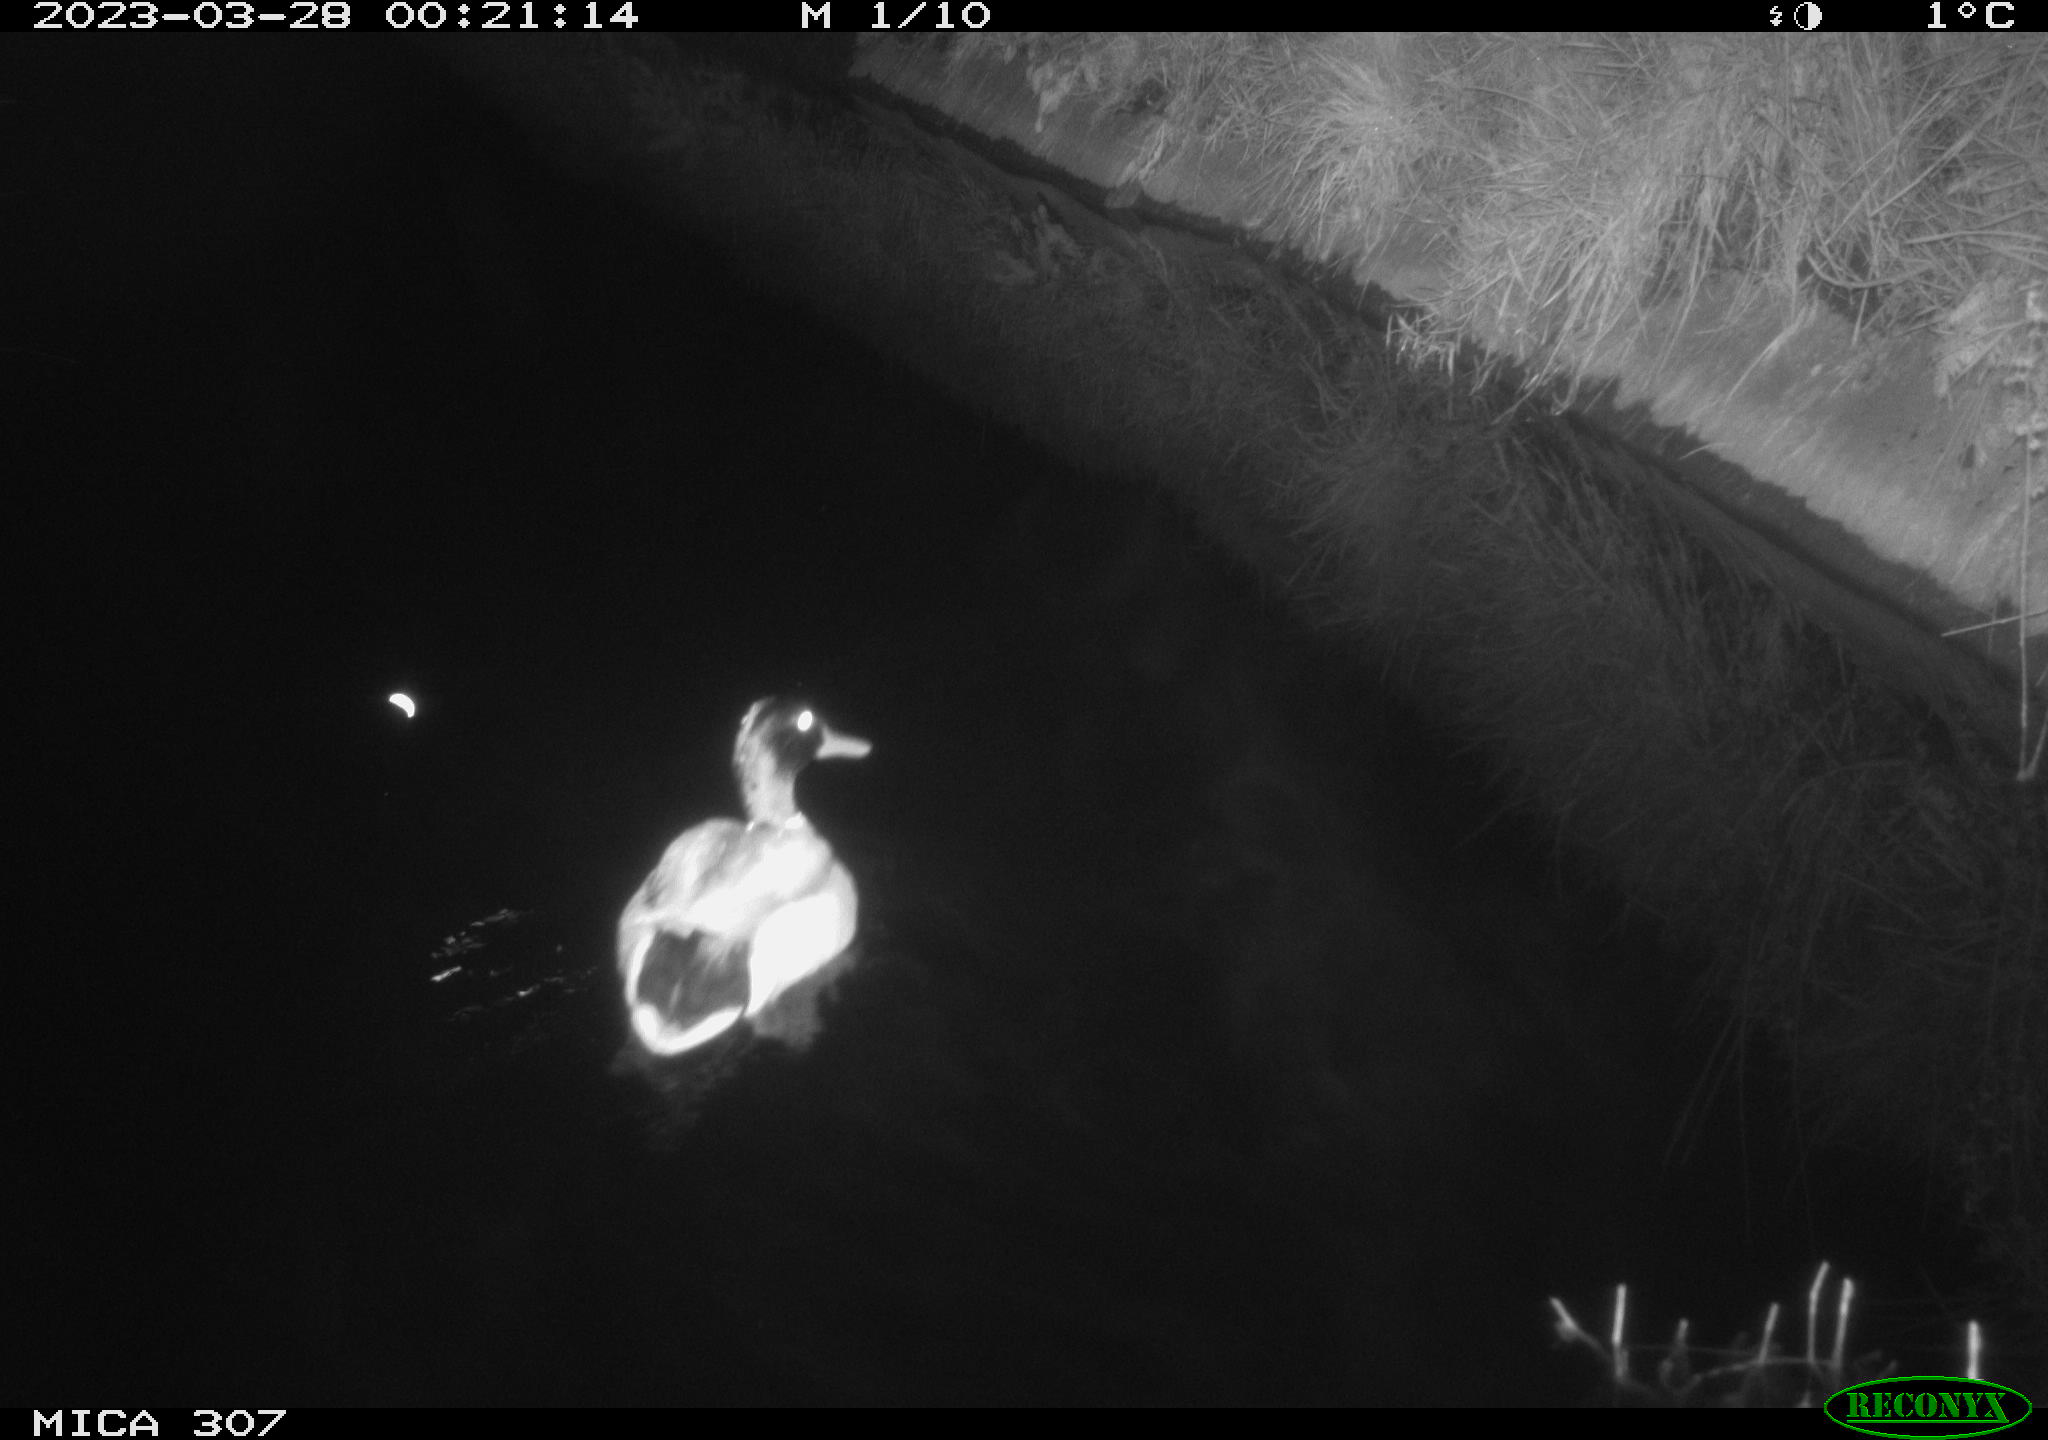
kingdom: Animalia
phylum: Chordata
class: Aves
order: Anseriformes
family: Anatidae
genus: Anas
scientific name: Anas
